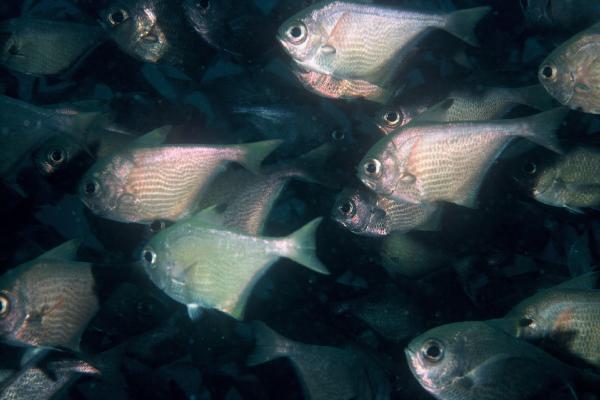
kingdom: Animalia
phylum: Chordata
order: Perciformes
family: Pempheridae
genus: Pempheris
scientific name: Pempheris vanicolensis
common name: Vanikoro sweeper
